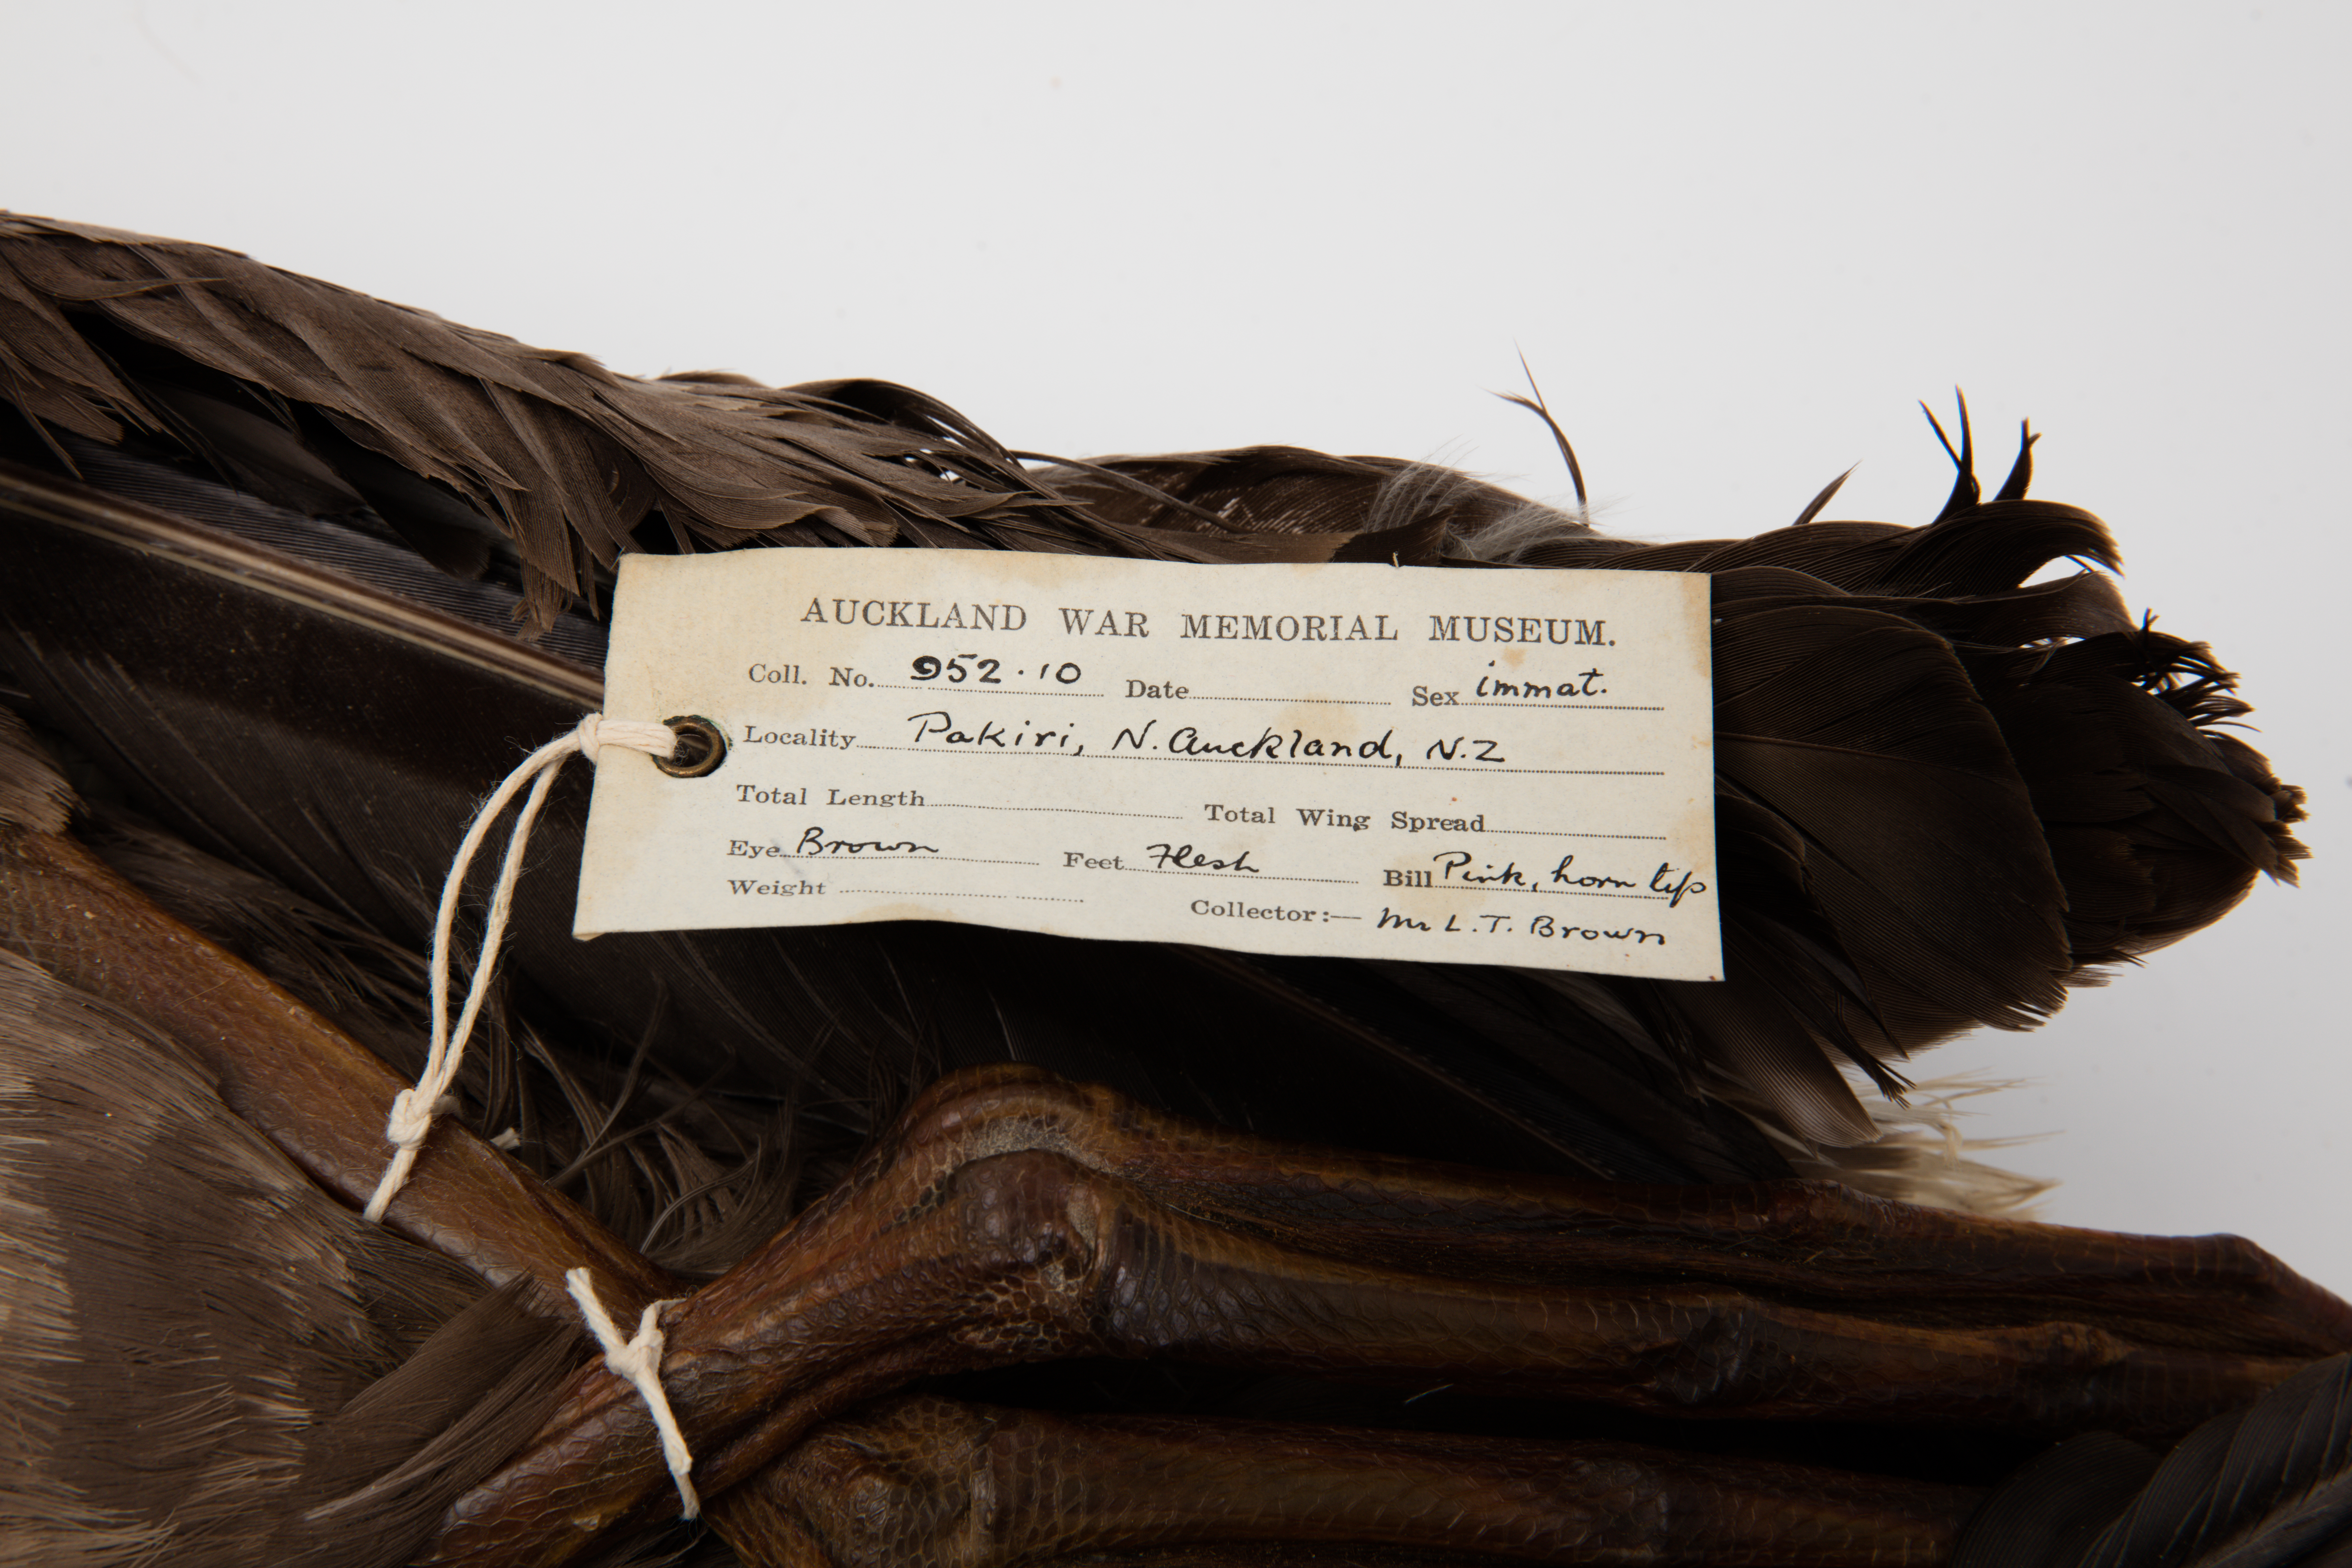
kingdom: Animalia
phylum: Chordata
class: Aves
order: Procellariiformes
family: Diomedeidae
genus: Diomedea
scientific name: Diomedea antipodensis
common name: Antipodean albatross
